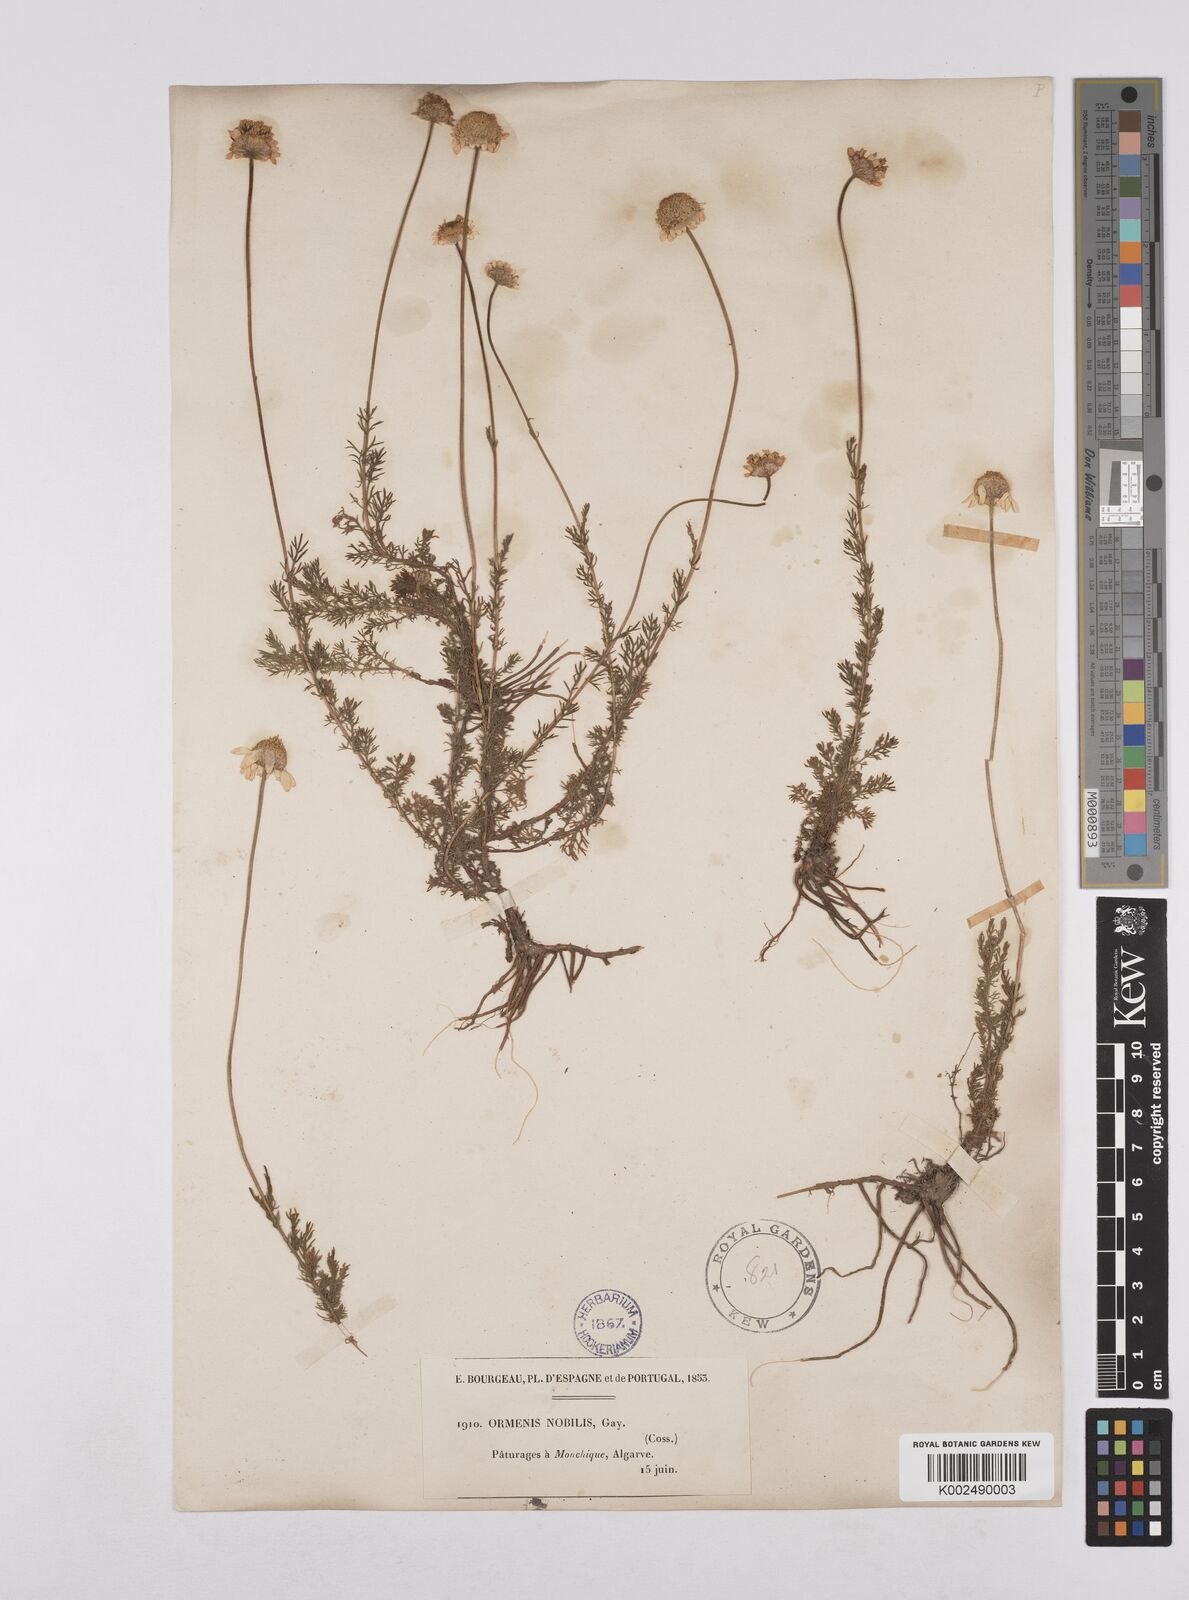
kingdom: Plantae
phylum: Tracheophyta
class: Magnoliopsida
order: Asterales
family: Asteraceae
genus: Chamaemelum
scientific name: Chamaemelum
